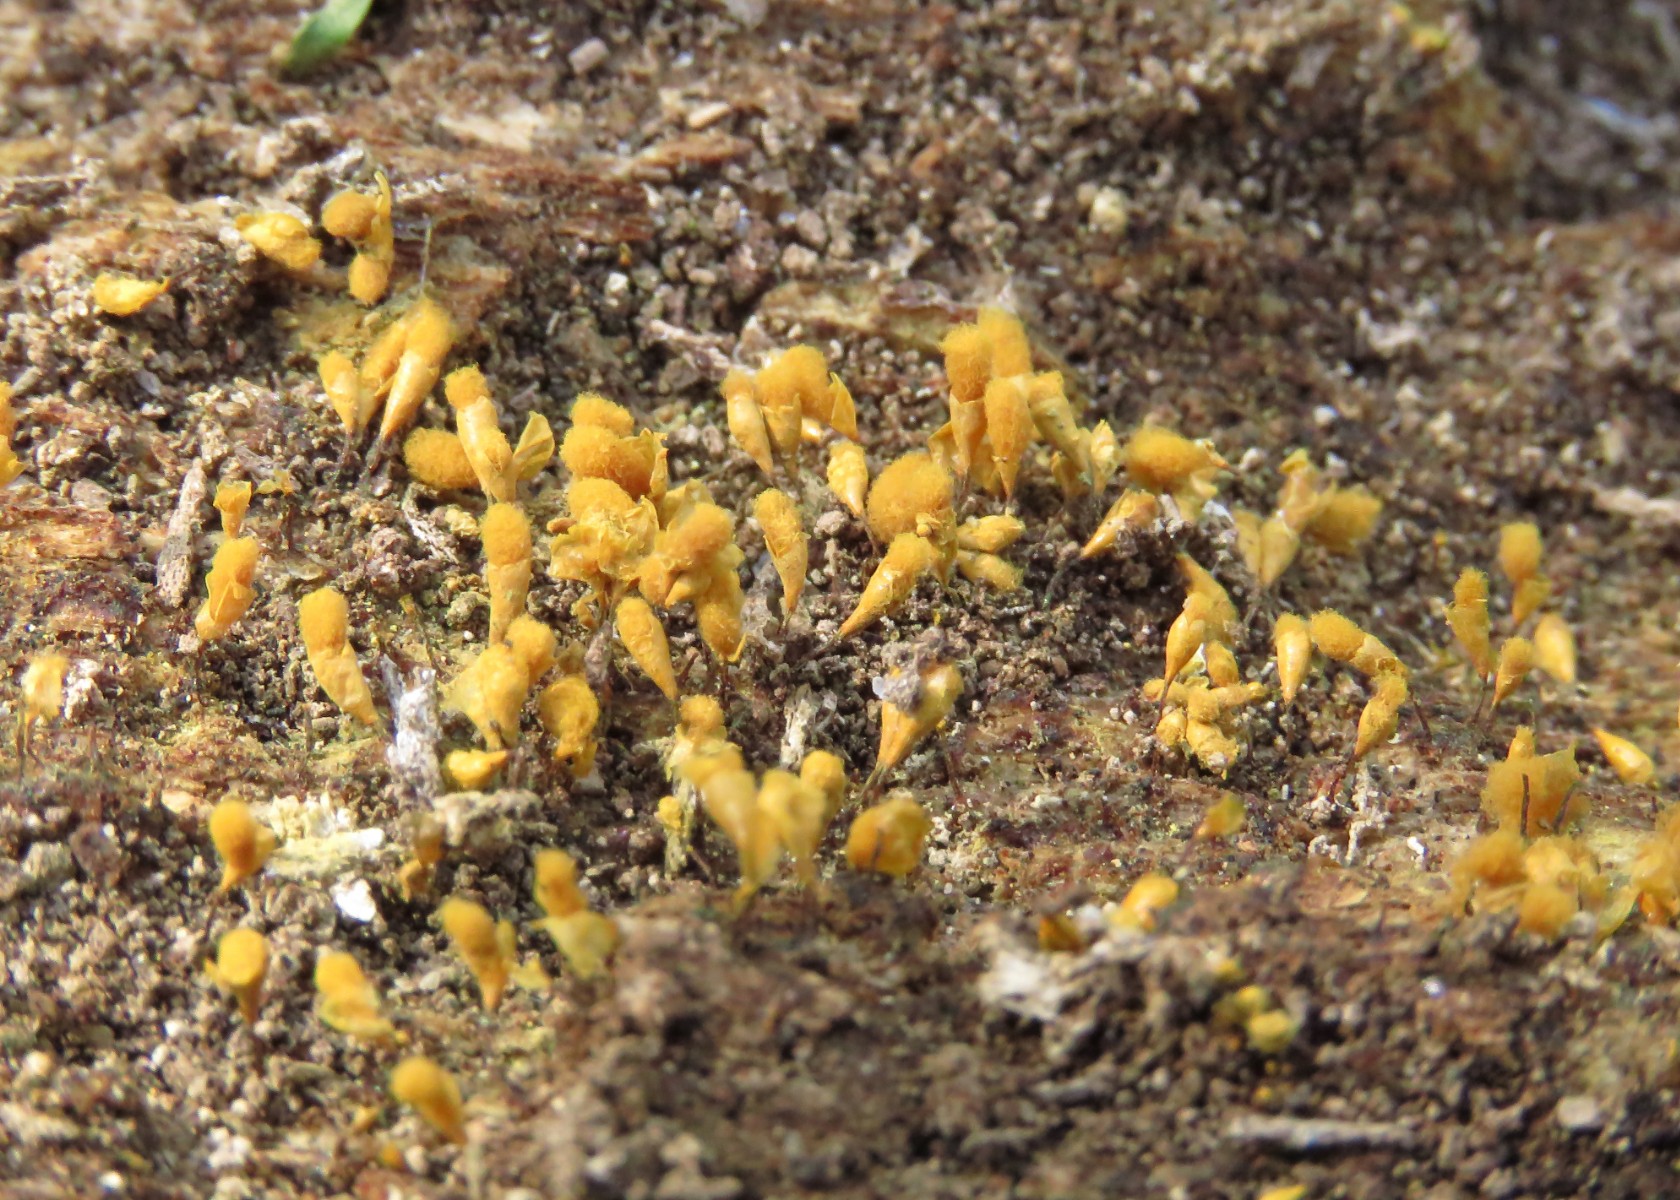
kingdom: Protozoa
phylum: Mycetozoa
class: Myxomycetes
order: Trichiales
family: Arcyriaceae
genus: Hemitrichia
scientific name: Hemitrichia clavata
